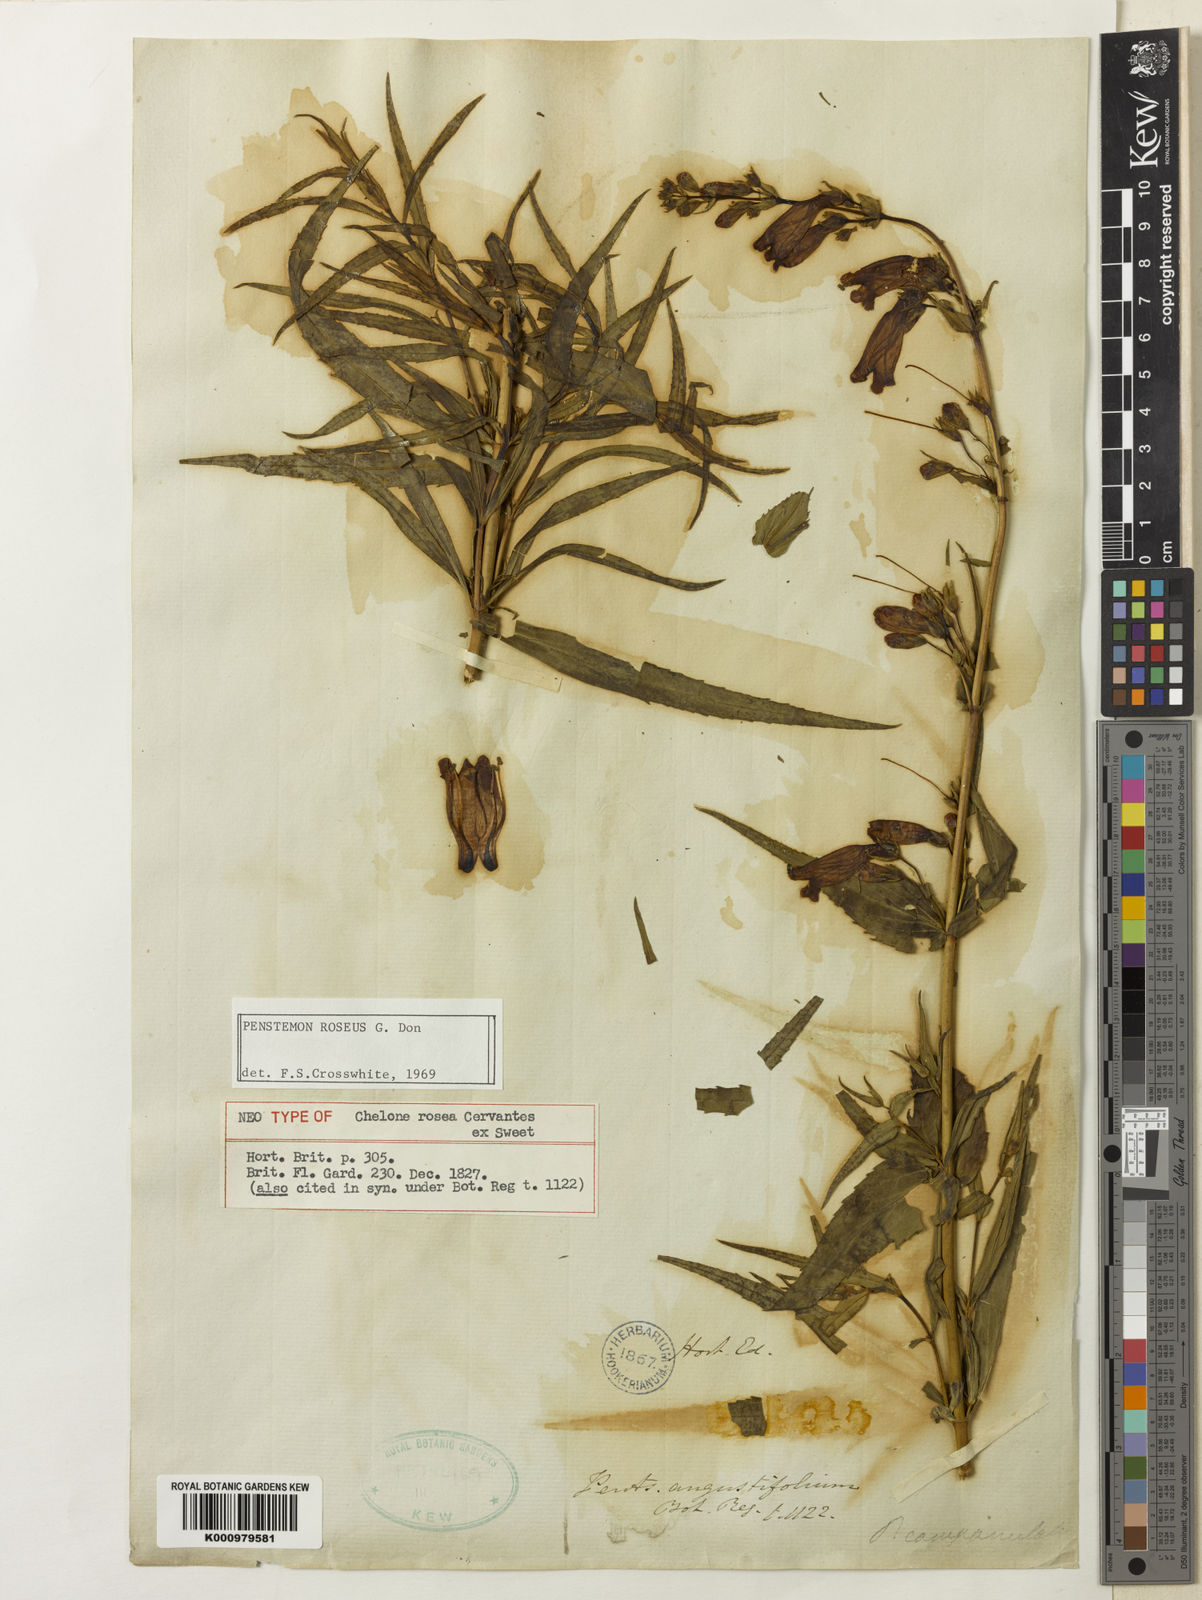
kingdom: Plantae
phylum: Tracheophyta
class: Magnoliopsida
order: Lamiales
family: Plantaginaceae
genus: Chelone
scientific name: Chelone
